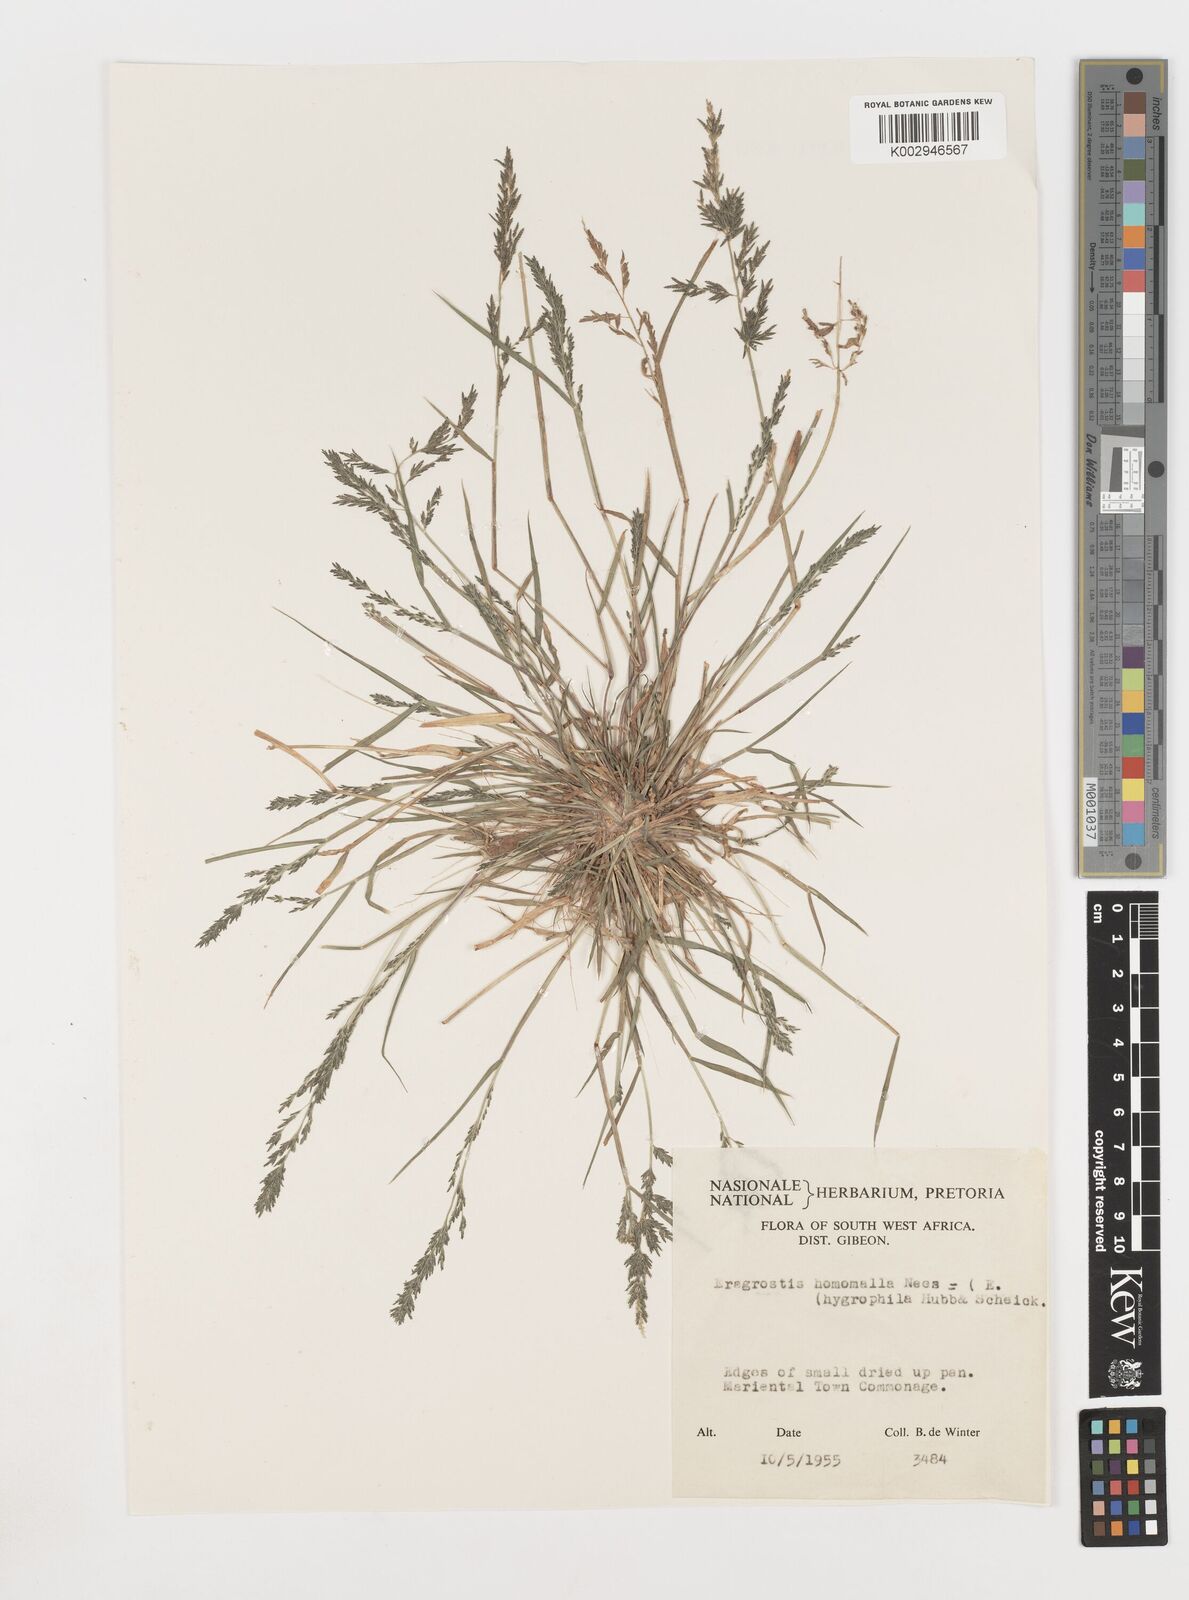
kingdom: Plantae
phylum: Tracheophyta
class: Liliopsida
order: Poales
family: Poaceae
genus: Eragrostis
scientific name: Eragrostis homomalla
